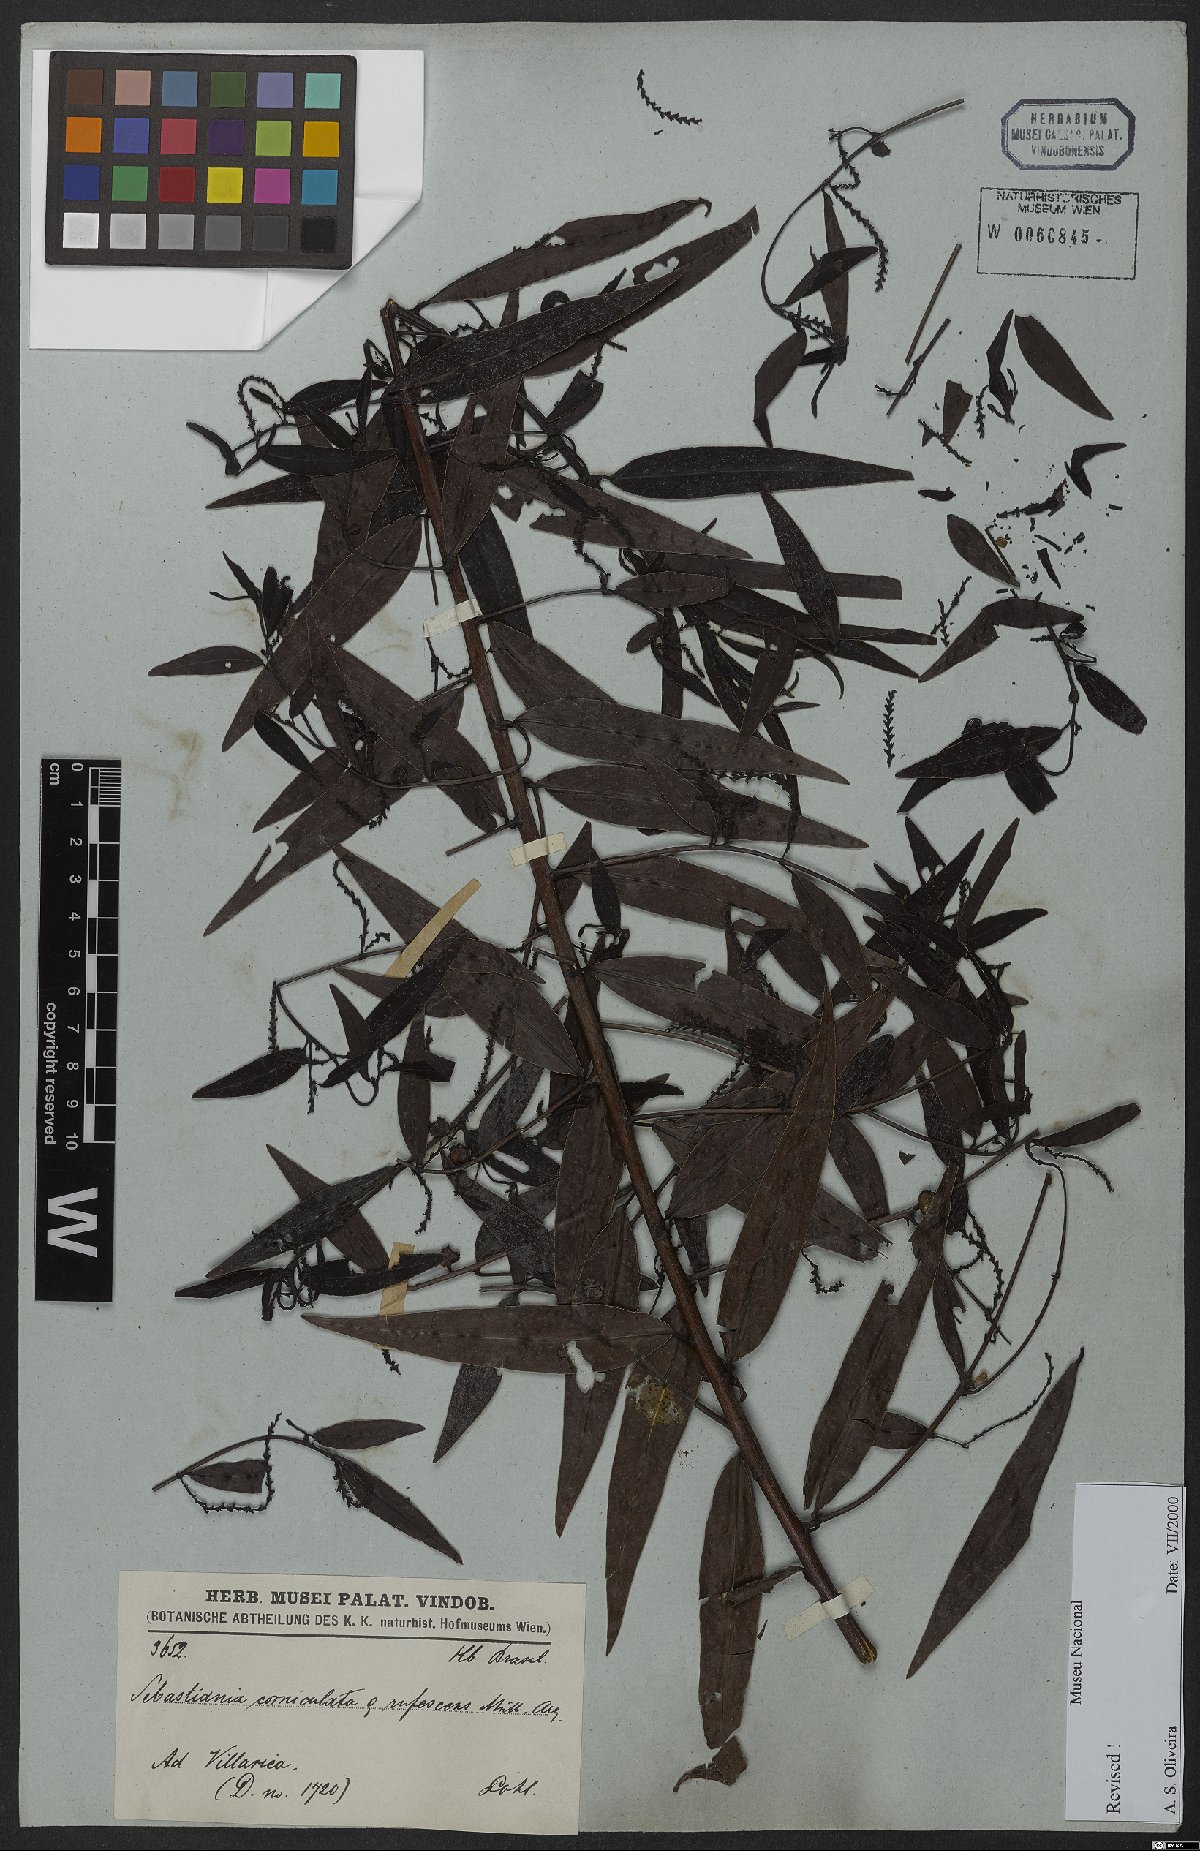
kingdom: Plantae
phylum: Tracheophyta
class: Magnoliopsida
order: Malpighiales
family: Euphorbiaceae
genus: Microstachys
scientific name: Microstachys hispida
